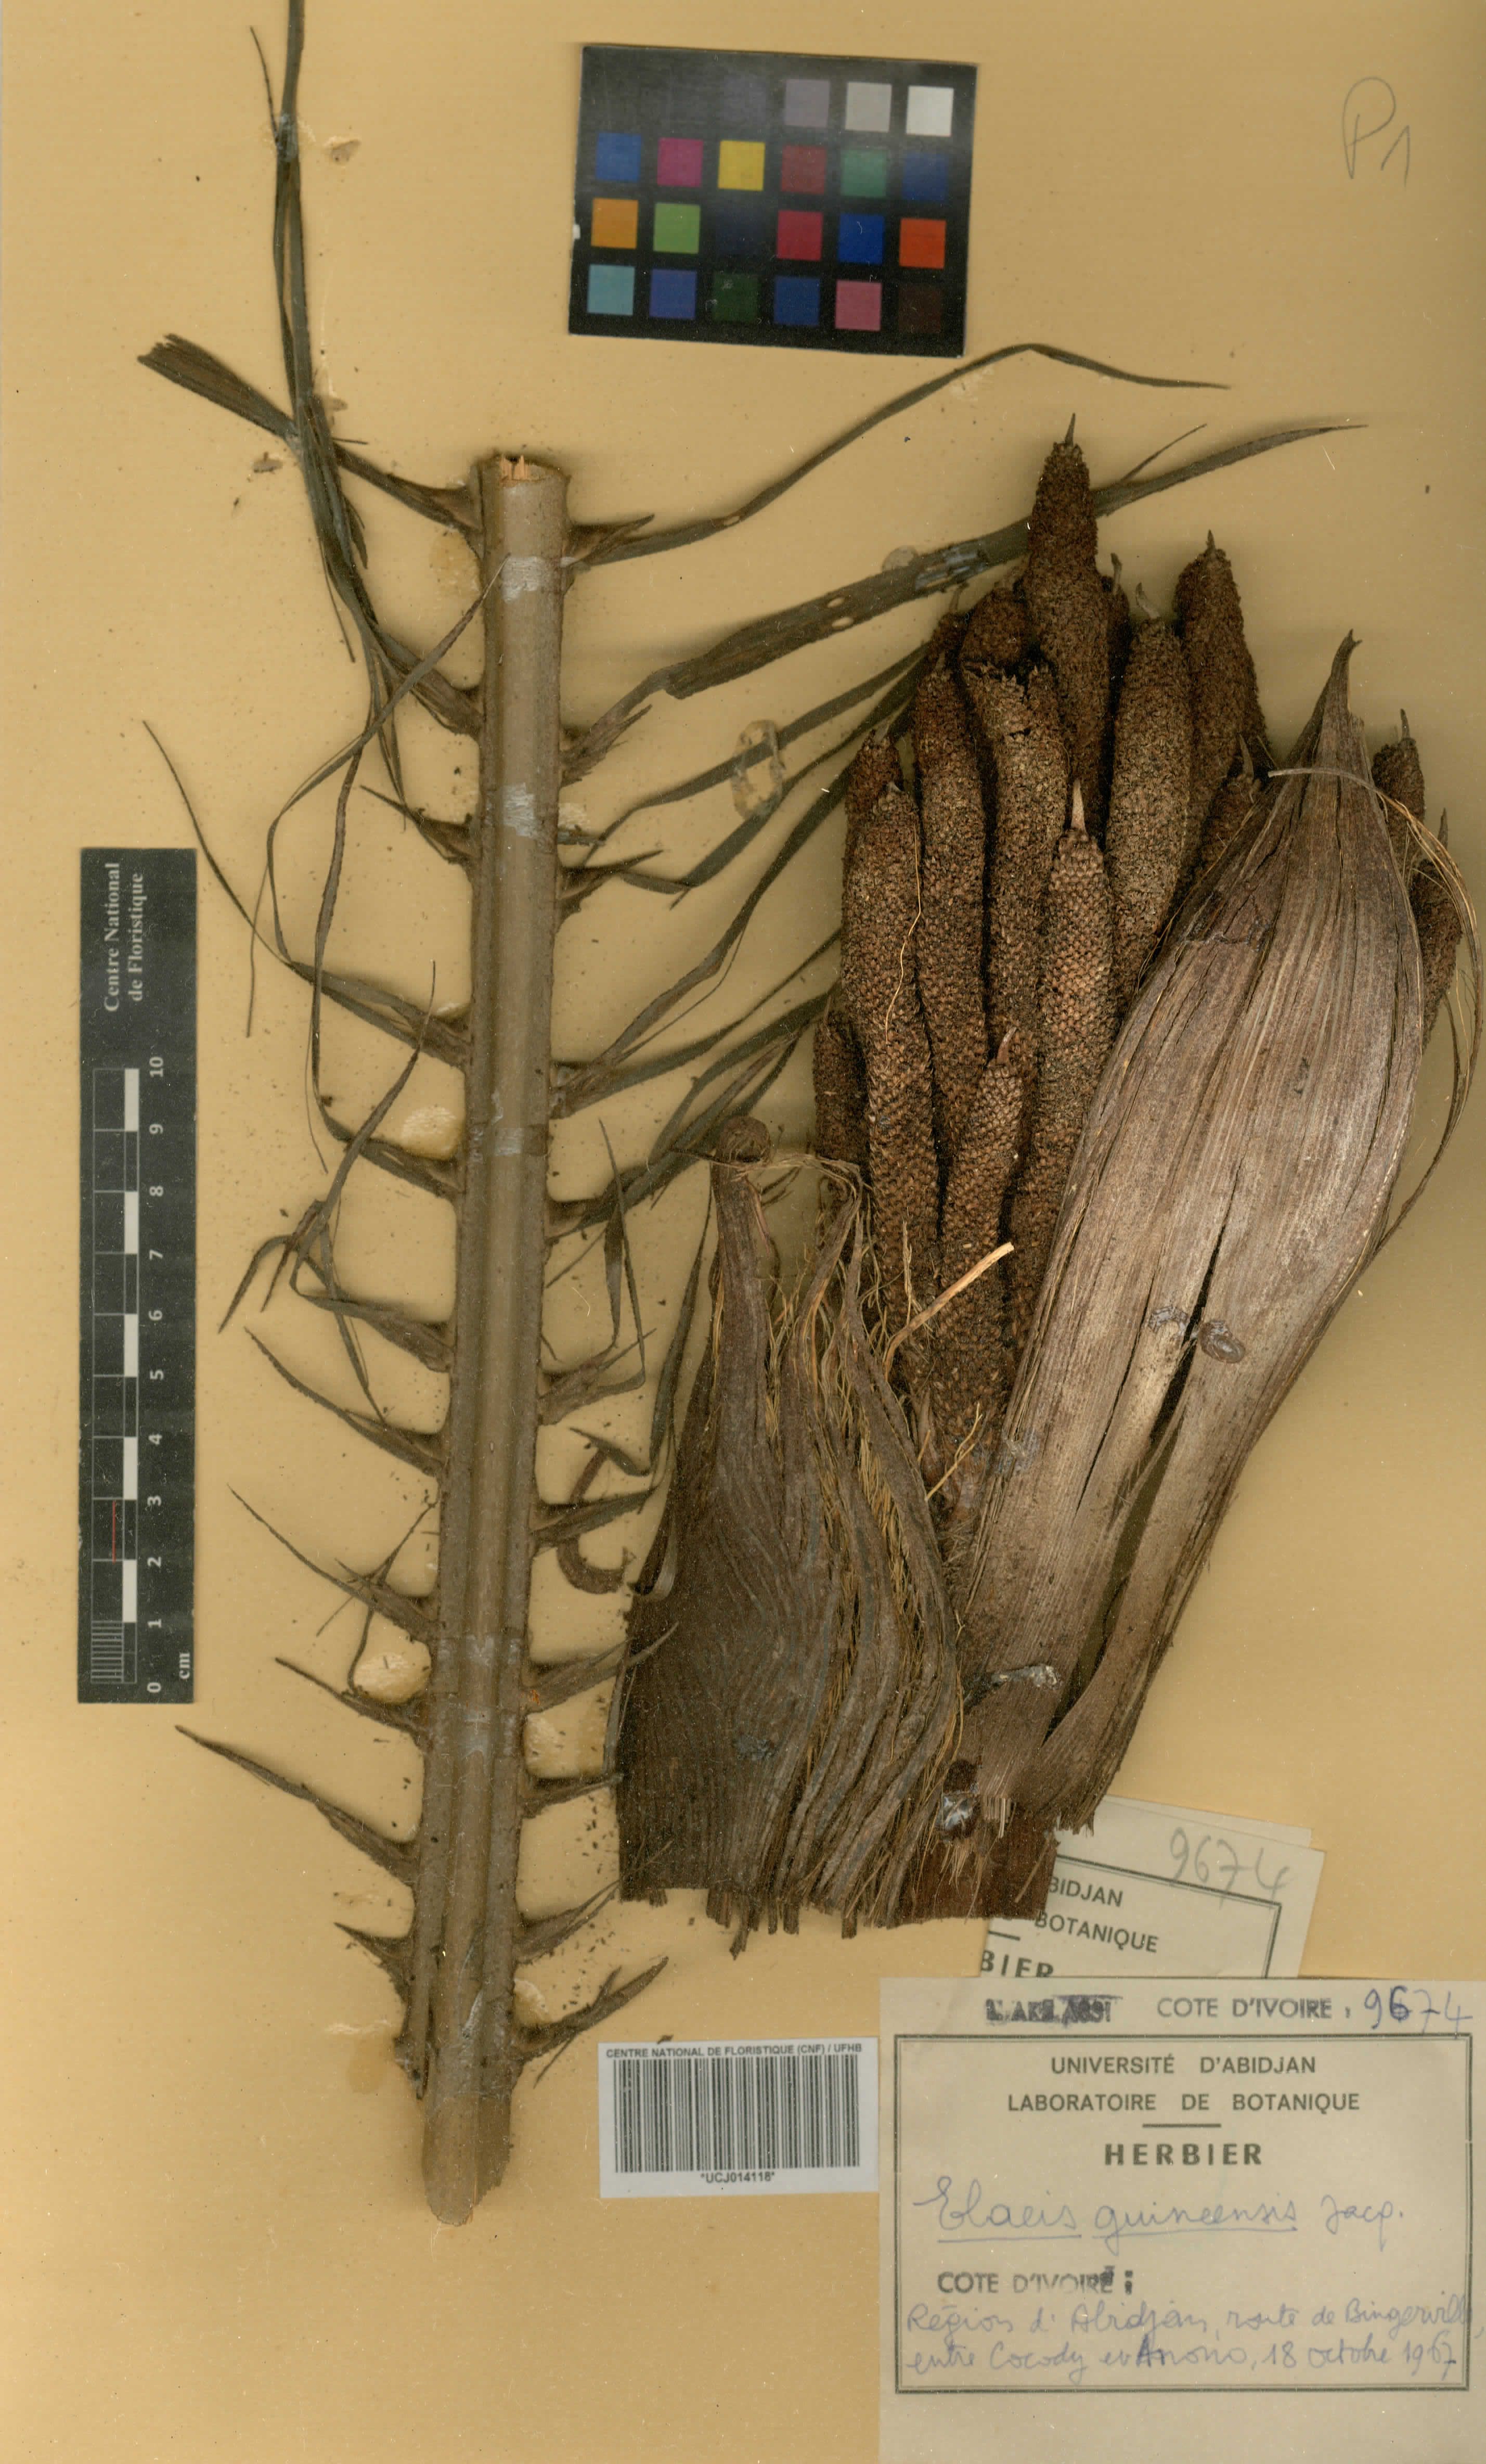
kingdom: Plantae
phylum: Tracheophyta
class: Liliopsida
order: Arecales
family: Arecaceae
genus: Elaeis
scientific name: Elaeis guineensis
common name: Oil palm
